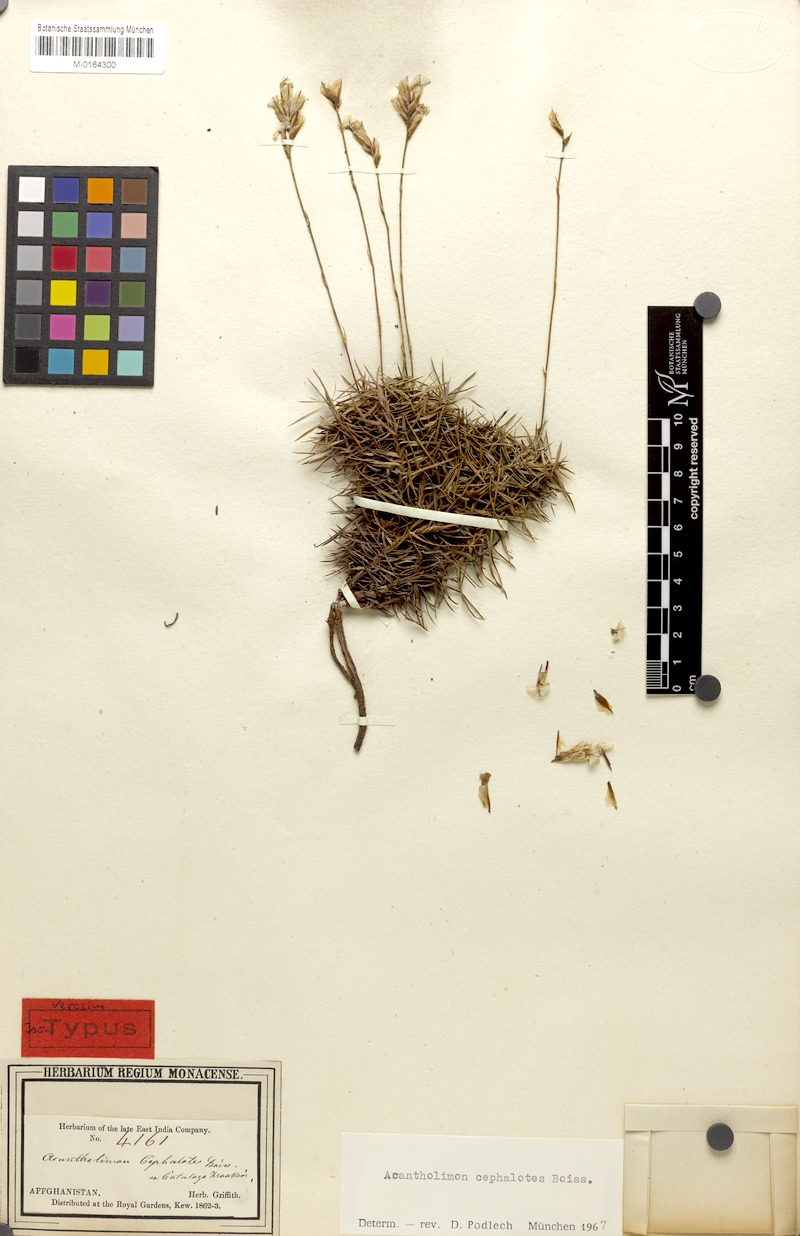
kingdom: Plantae
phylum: Tracheophyta
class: Magnoliopsida
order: Caryophyllales
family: Plumbaginaceae
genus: Acantholimon
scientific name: Acantholimon cephalotes
